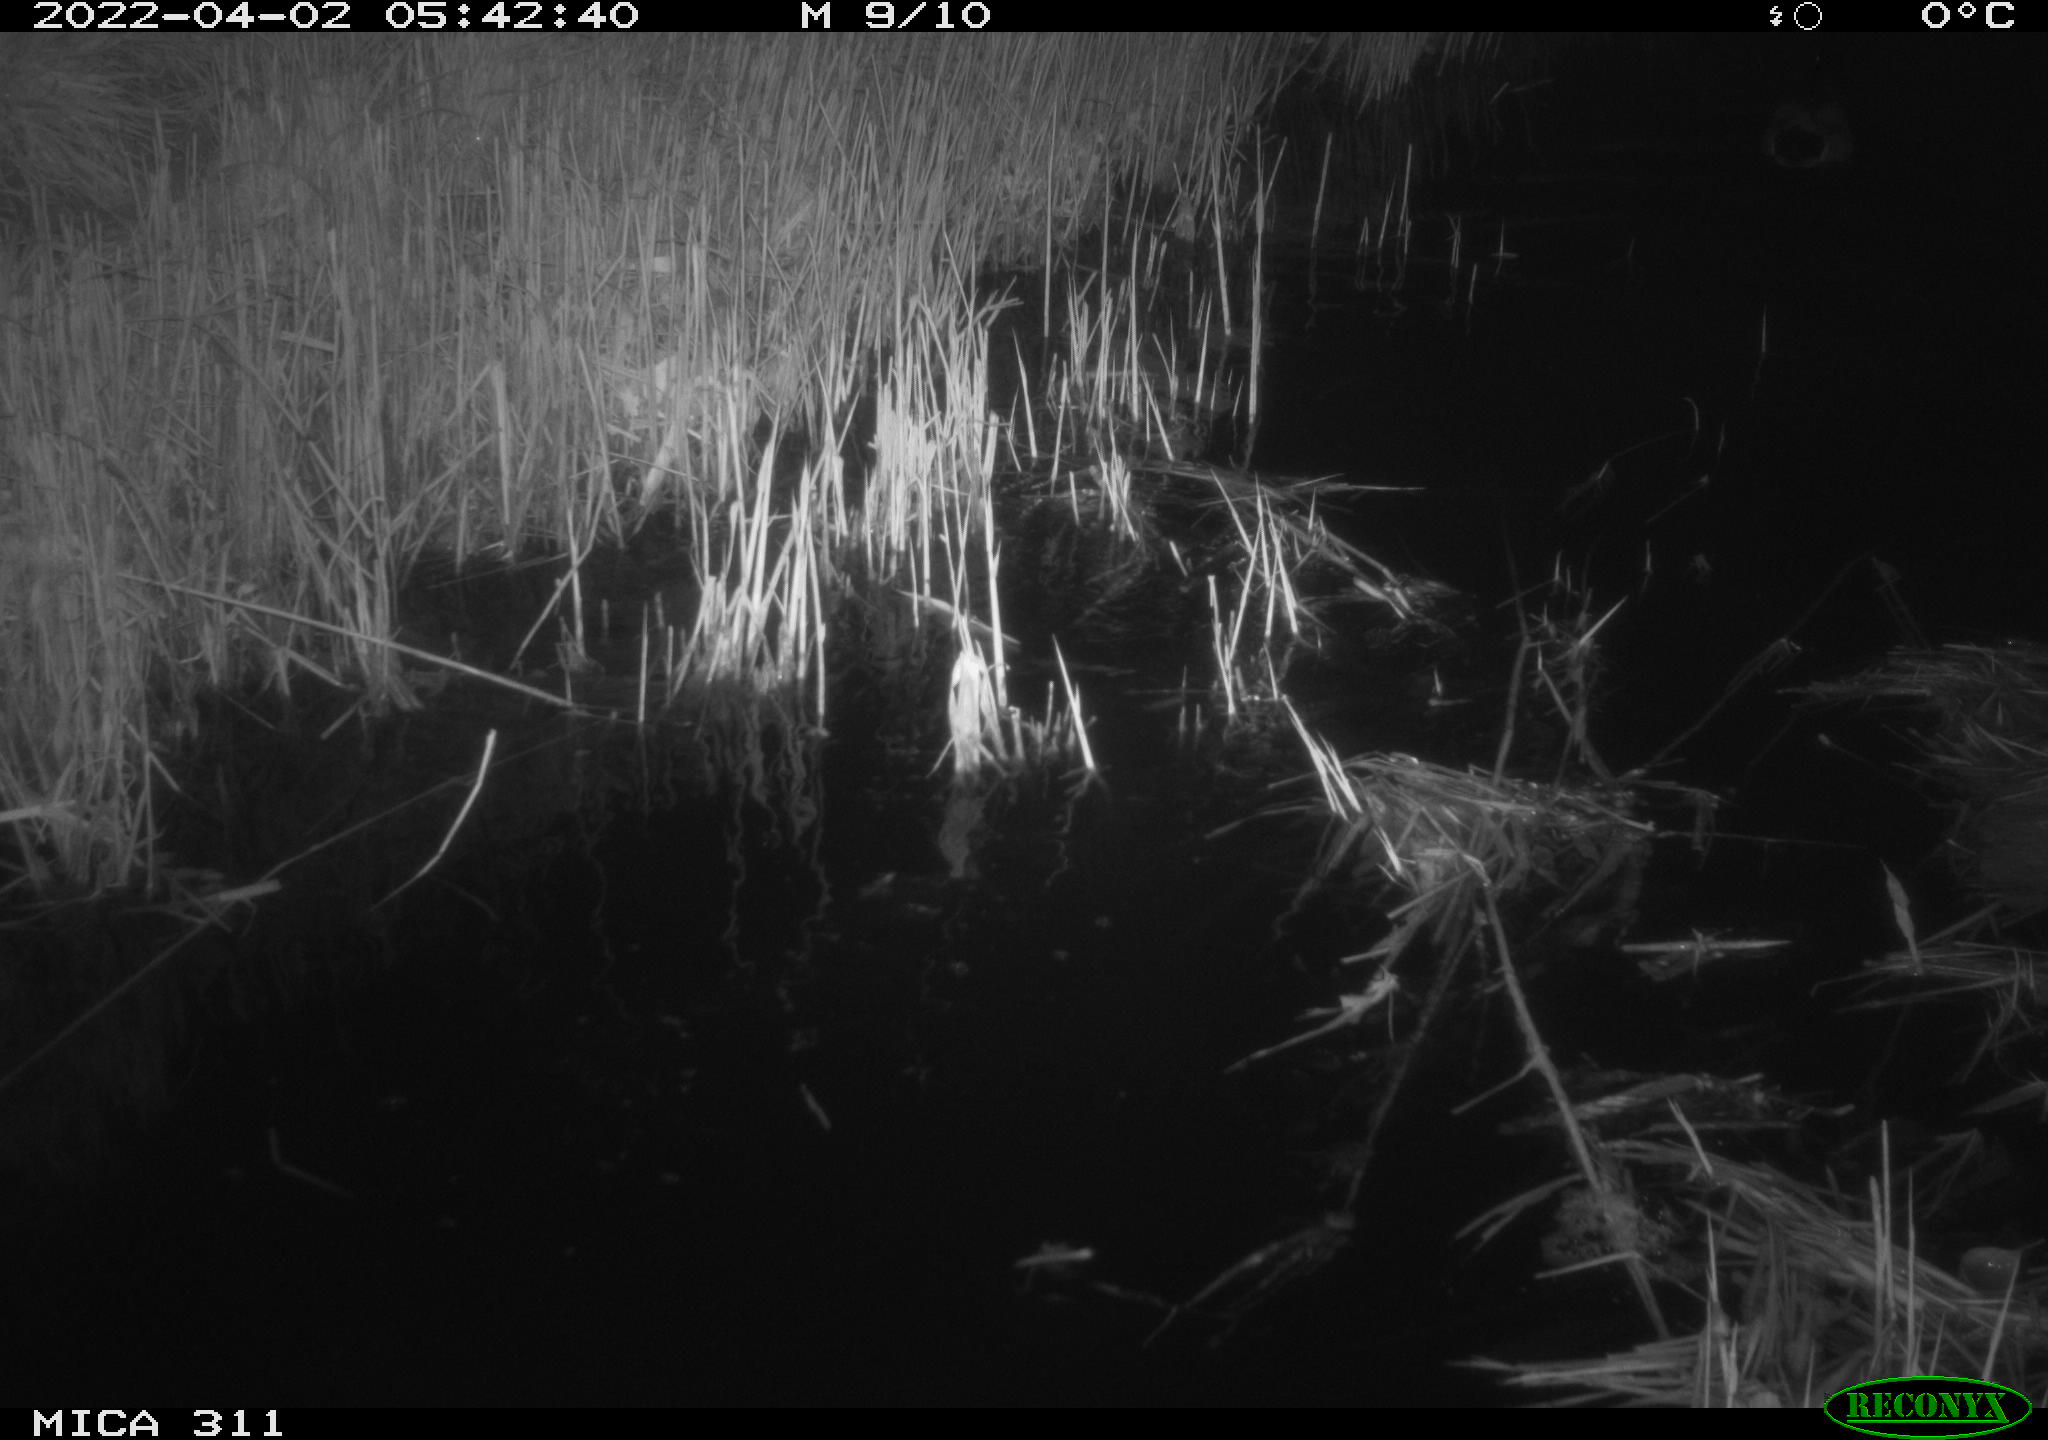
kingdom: Animalia
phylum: Chordata
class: Aves
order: Anseriformes
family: Anatidae
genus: Anas
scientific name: Anas platyrhynchos
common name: Mallard
